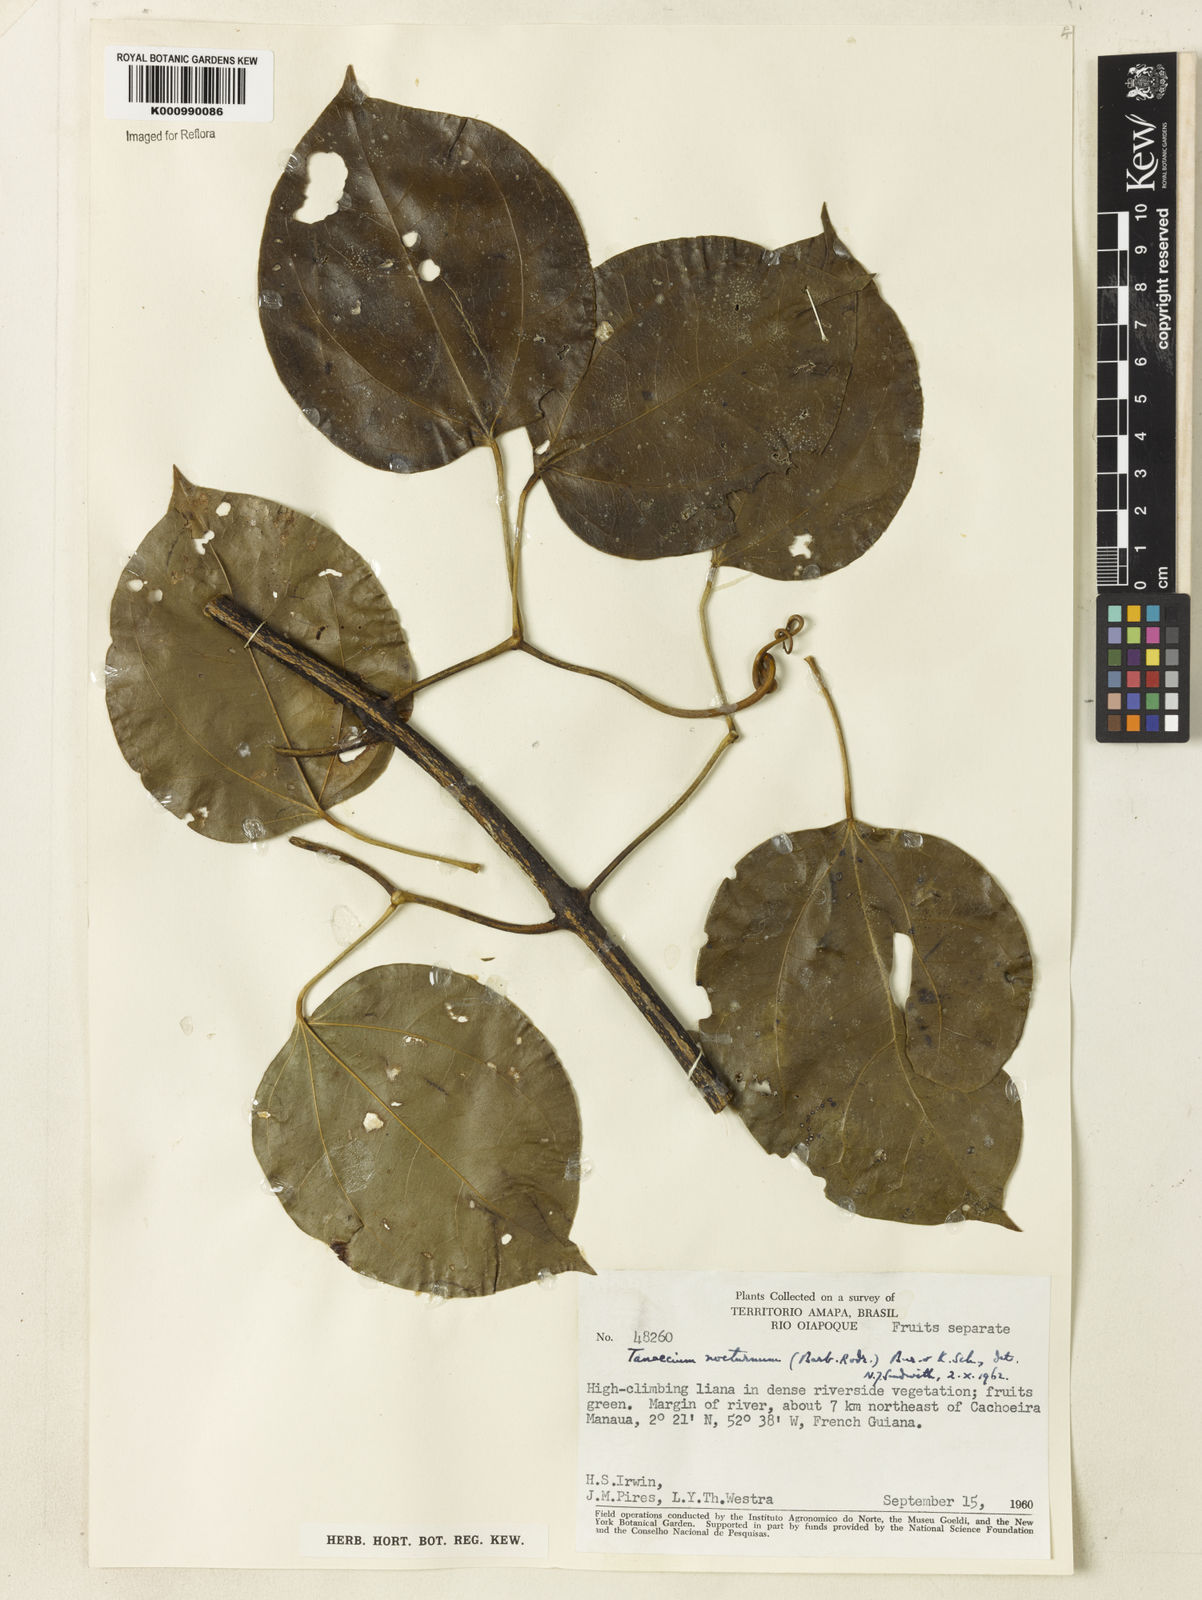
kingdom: Plantae
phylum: Tracheophyta
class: Magnoliopsida
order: Lamiales
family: Bignoniaceae
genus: Bignonia
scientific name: Bignonia nocturna
